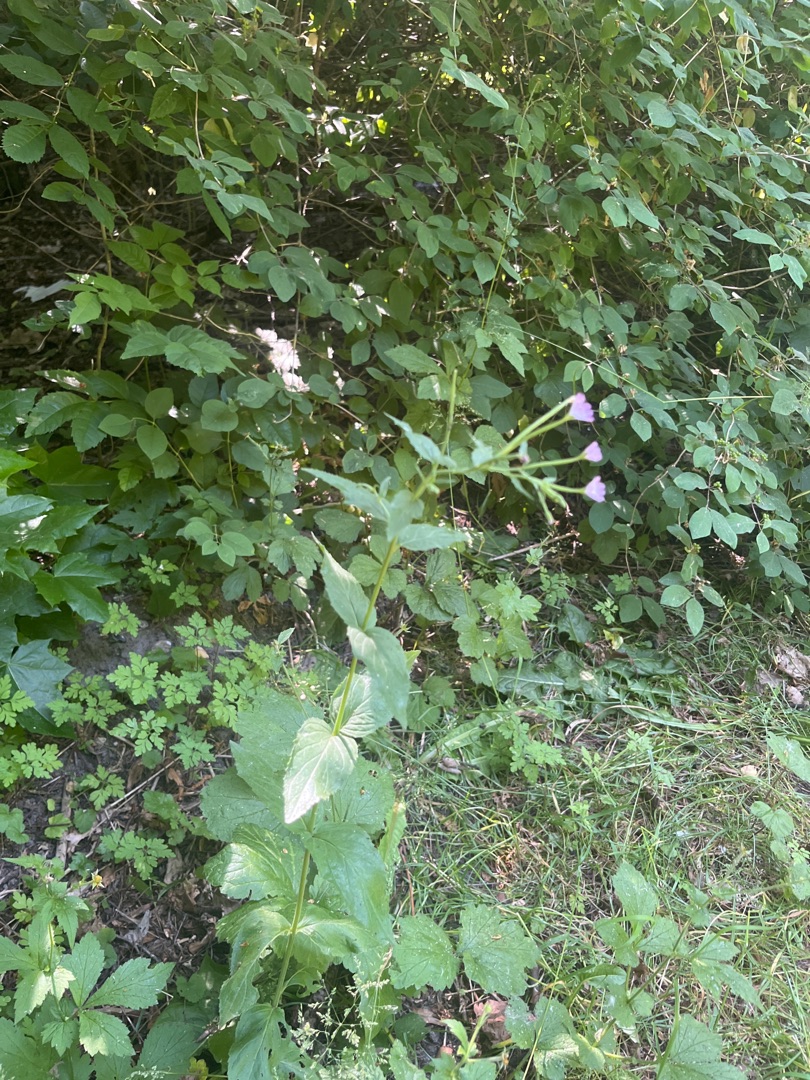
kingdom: Plantae
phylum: Tracheophyta
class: Magnoliopsida
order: Myrtales
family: Onagraceae
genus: Epilobium
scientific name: Epilobium montanum
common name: Glat dueurt
